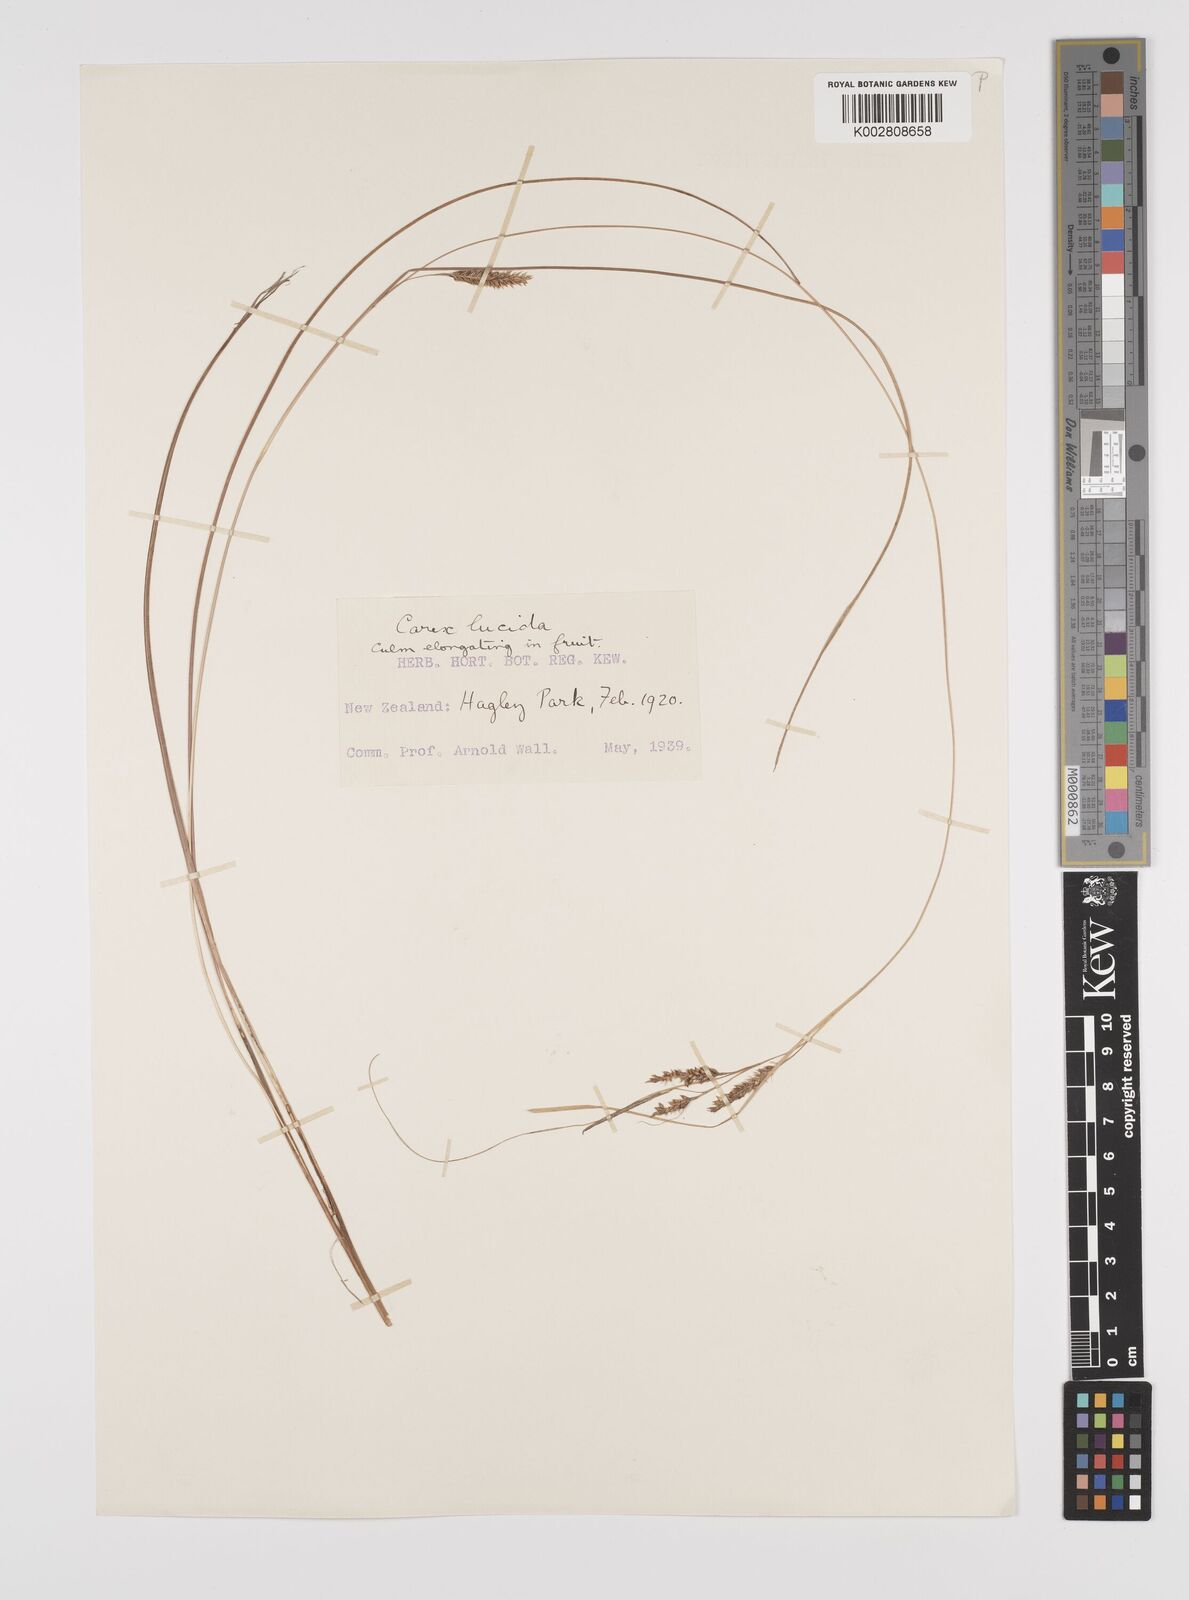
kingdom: Plantae
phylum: Tracheophyta
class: Liliopsida
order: Poales
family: Cyperaceae
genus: Carex
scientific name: Carex flagellifera
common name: Glen murray tussock
